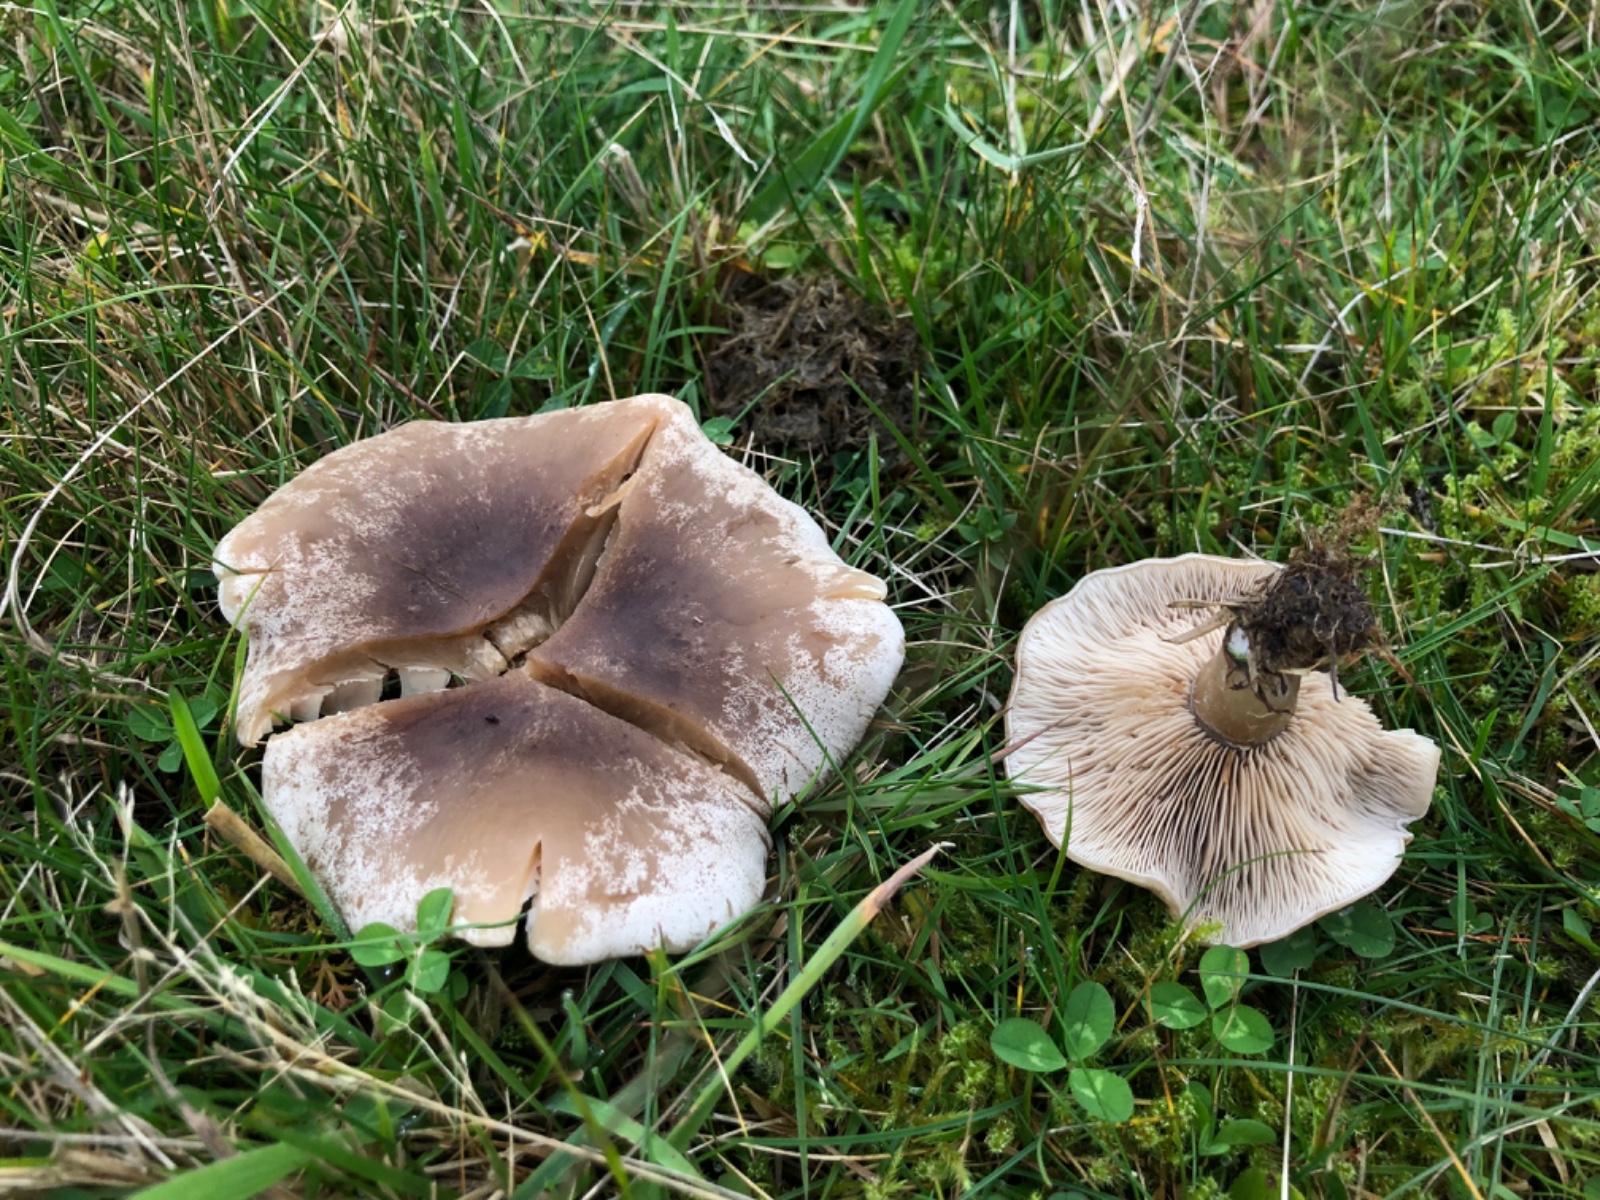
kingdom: Fungi
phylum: Basidiomycota
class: Agaricomycetes
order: Agaricales
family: Tricholomataceae
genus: Lepista
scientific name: Lepista panaeolus
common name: marmoreret hekseringshat
